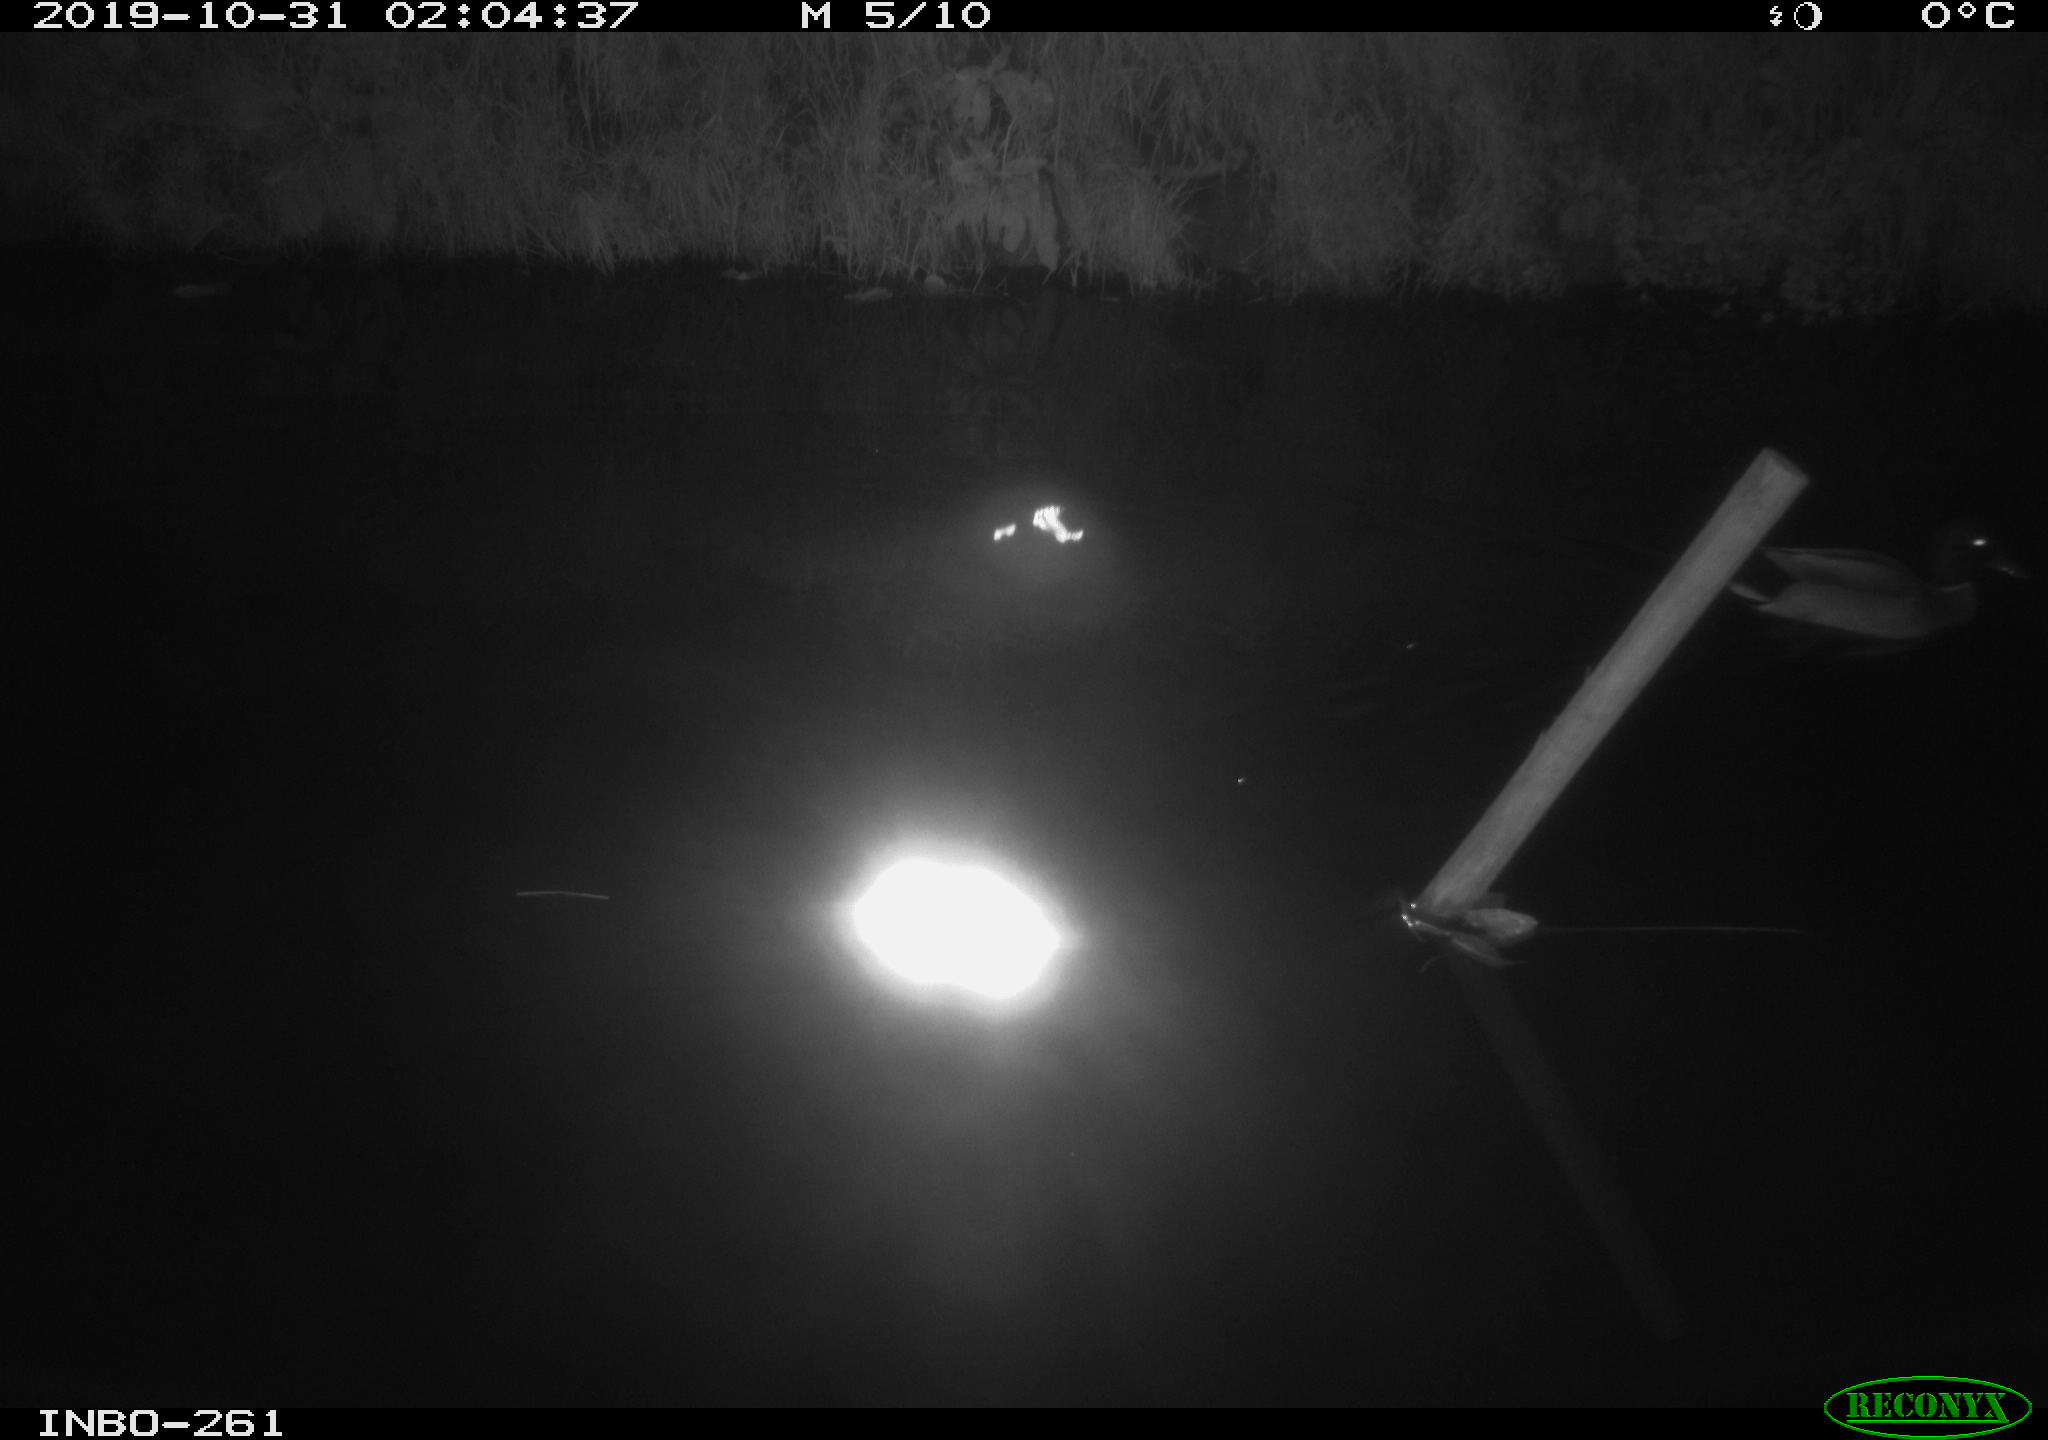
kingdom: Animalia
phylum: Chordata
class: Aves
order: Anseriformes
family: Anatidae
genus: Anas
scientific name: Anas platyrhynchos
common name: Mallard
